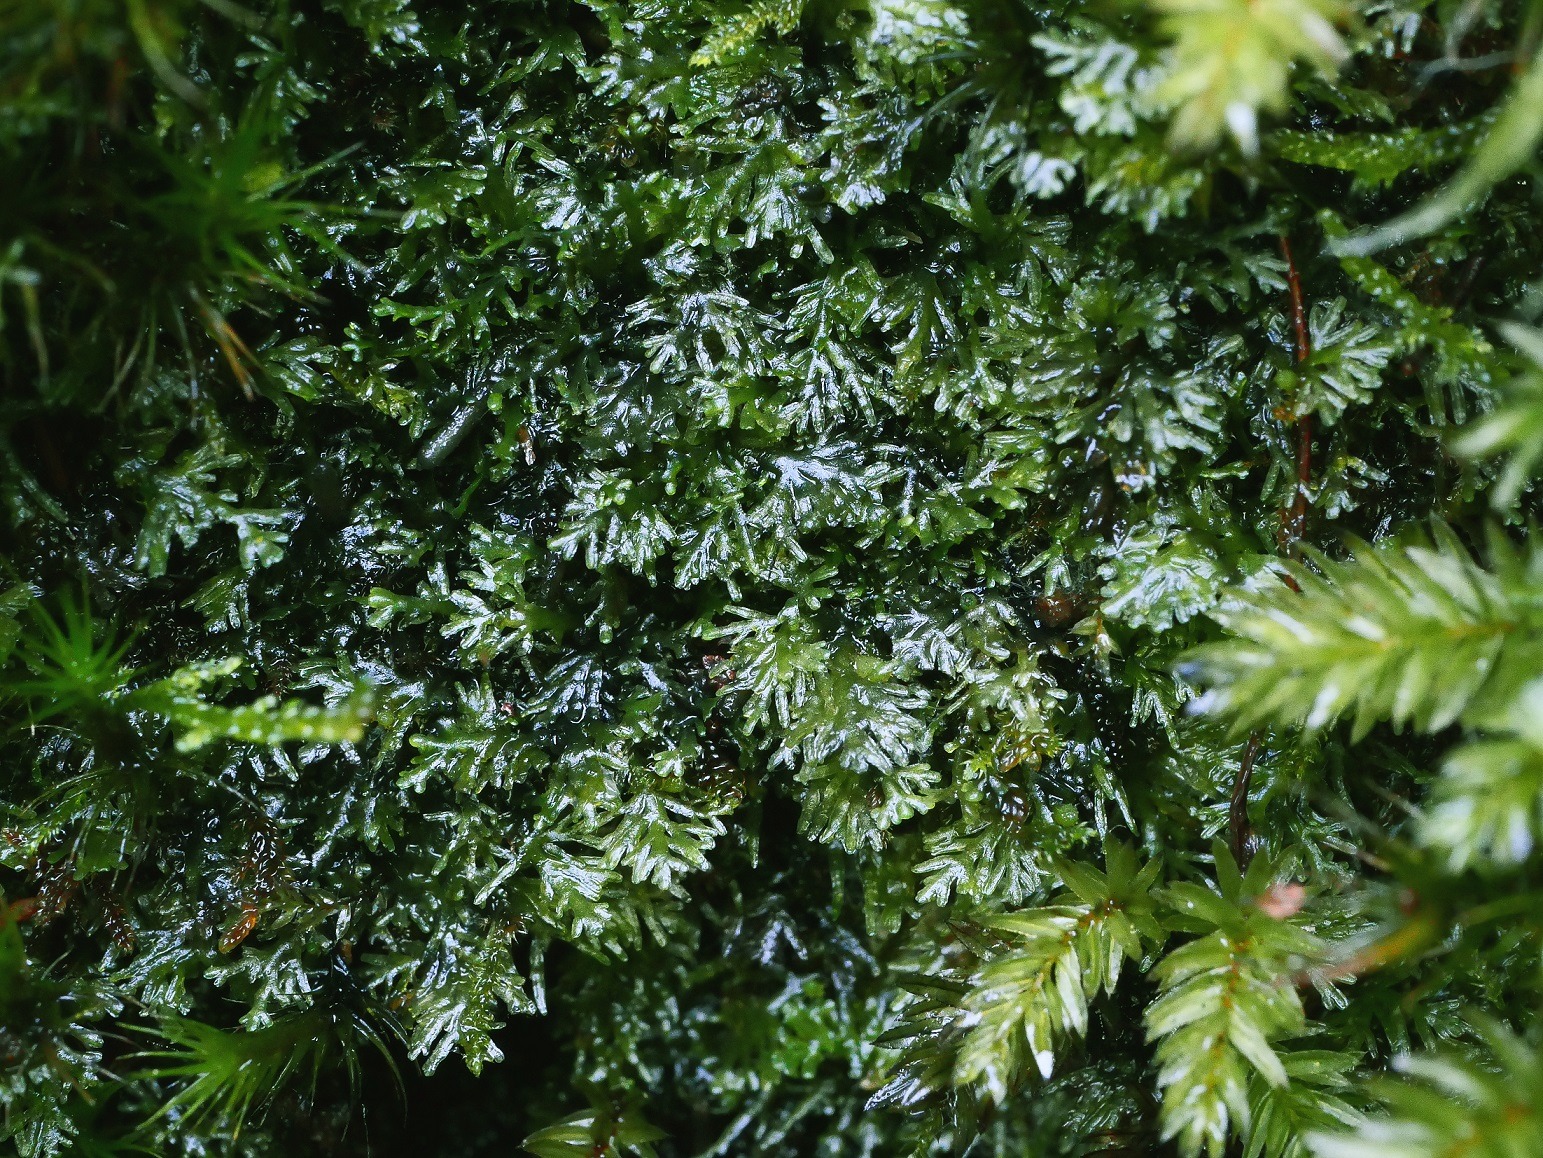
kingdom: Plantae
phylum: Marchantiophyta
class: Jungermanniopsida
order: Metzgeriales
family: Aneuraceae
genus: Riccardia
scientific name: Riccardia multifida
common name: Fjergrenet ribbeløs
